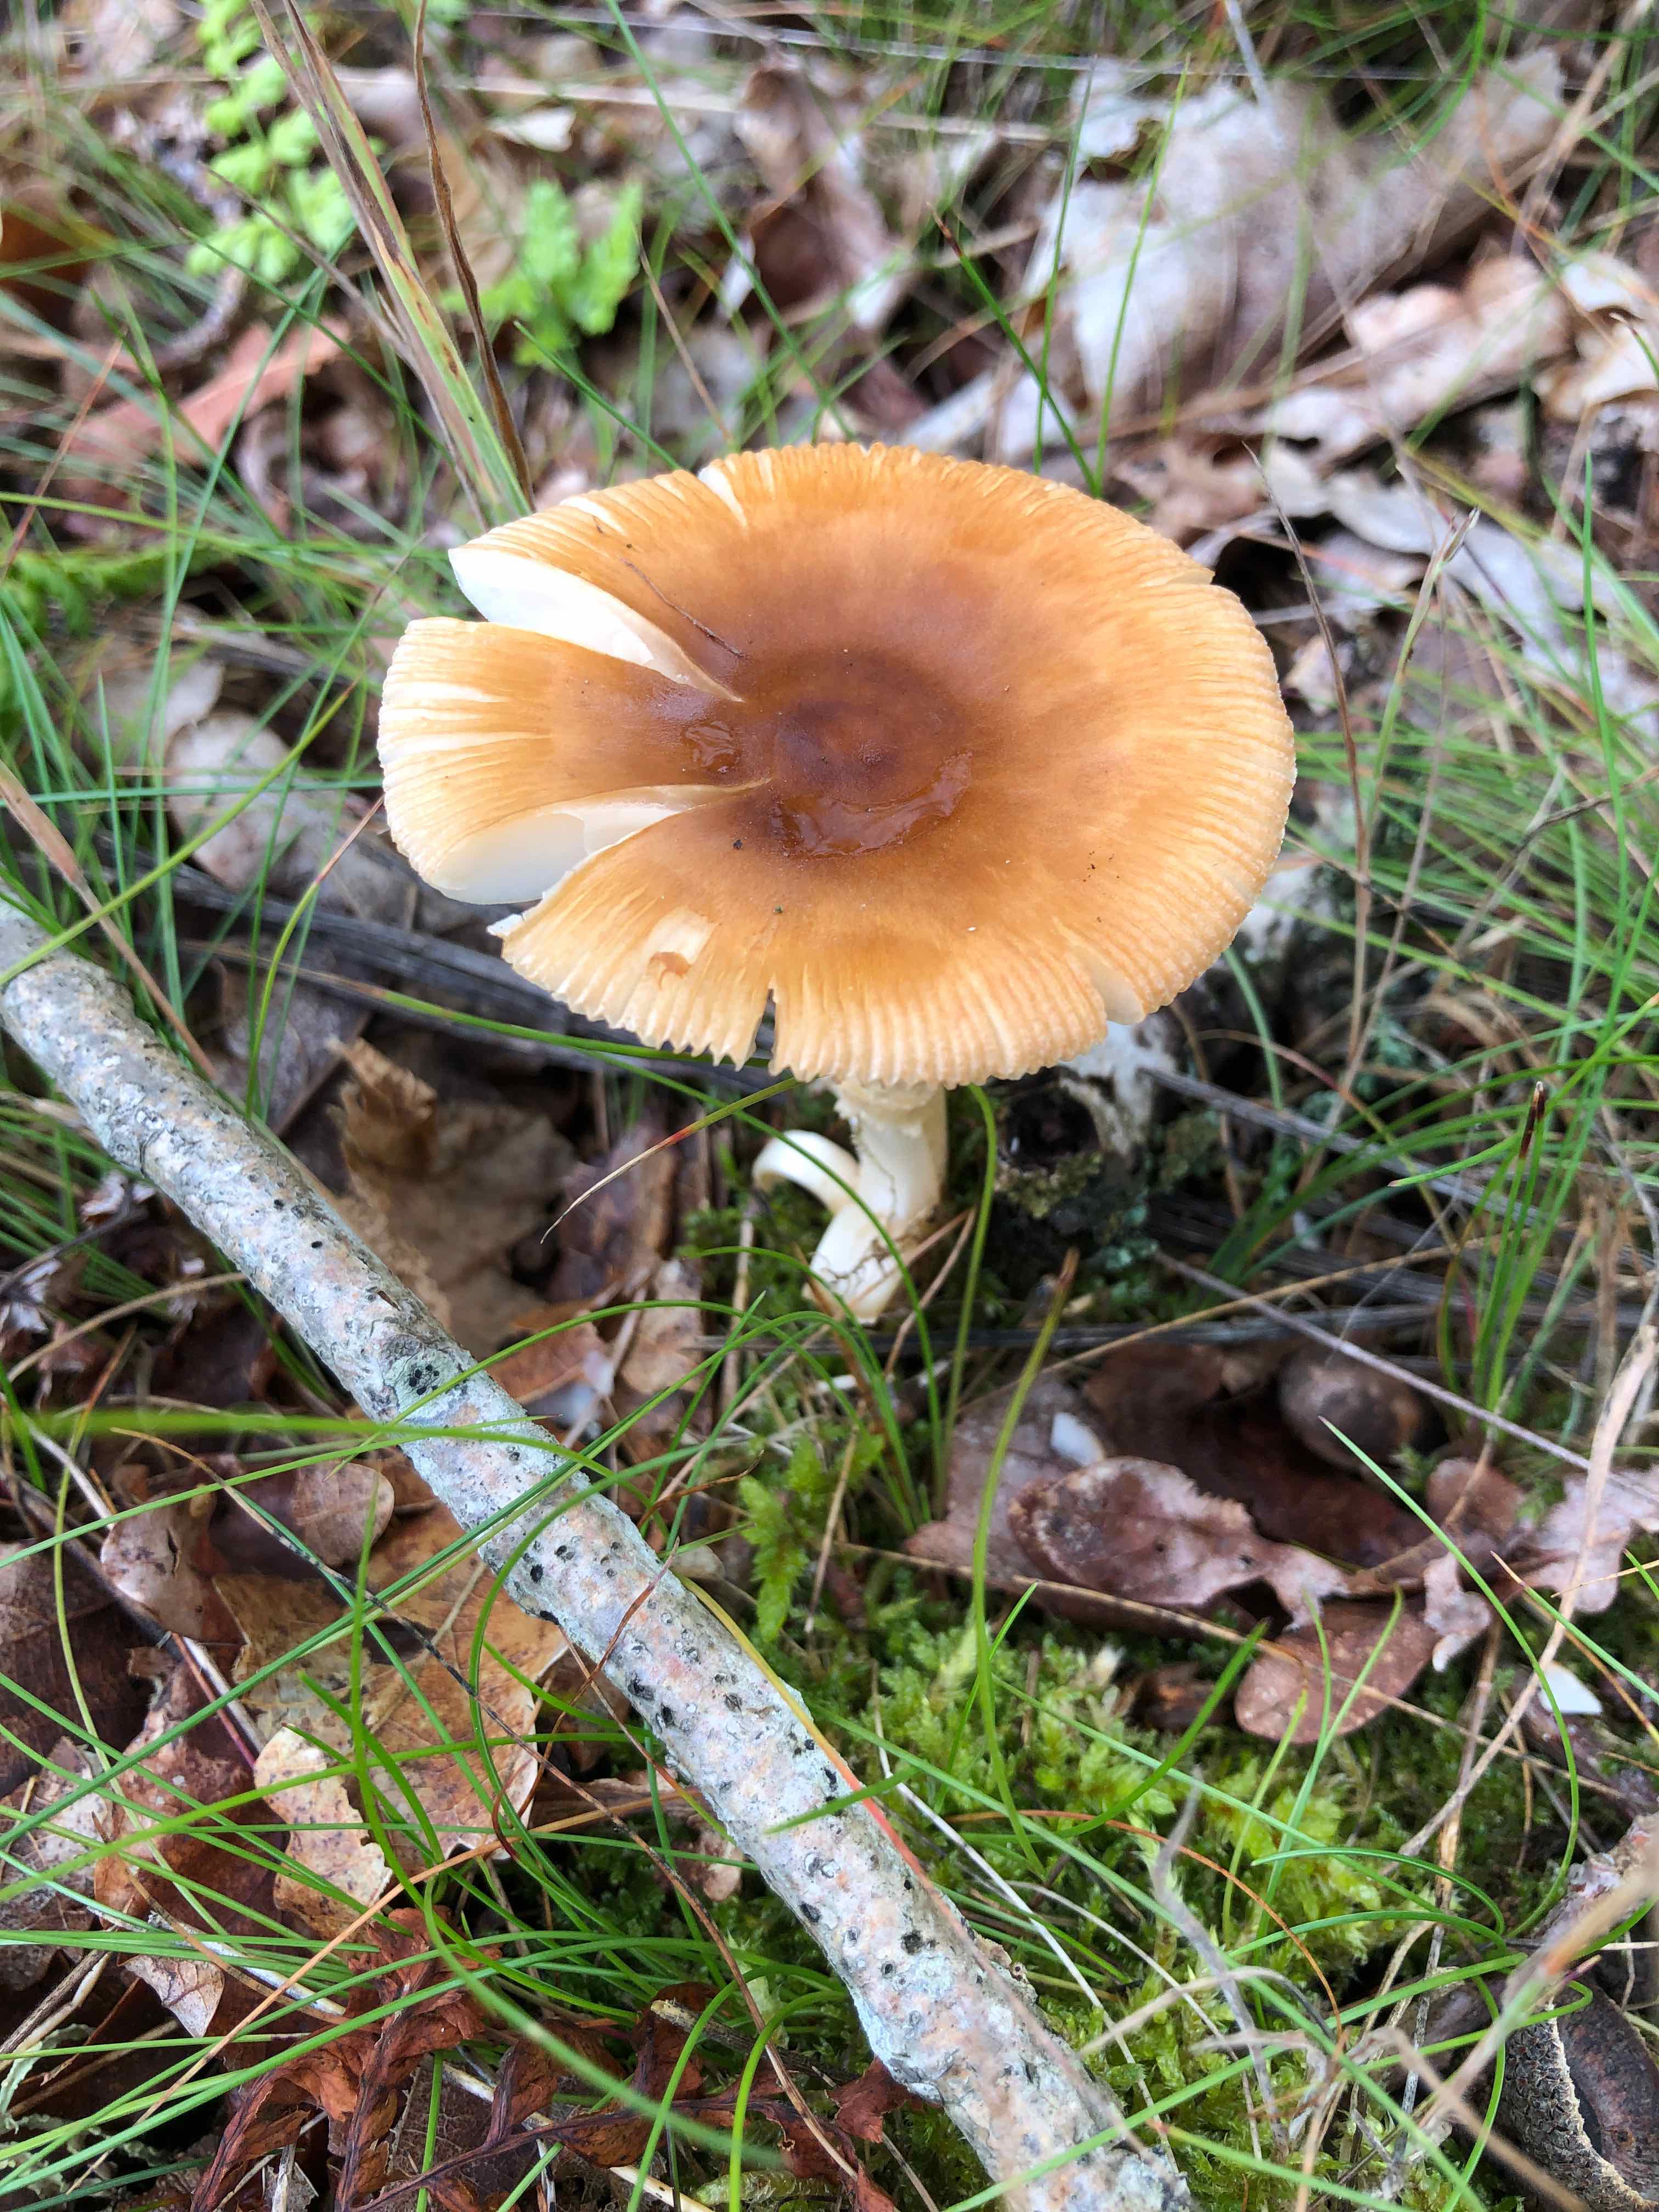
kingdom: Fungi
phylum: Basidiomycota
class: Agaricomycetes
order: Agaricales
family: Amanitaceae
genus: Amanita
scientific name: Amanita fulva
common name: brun kam-fluesvamp
